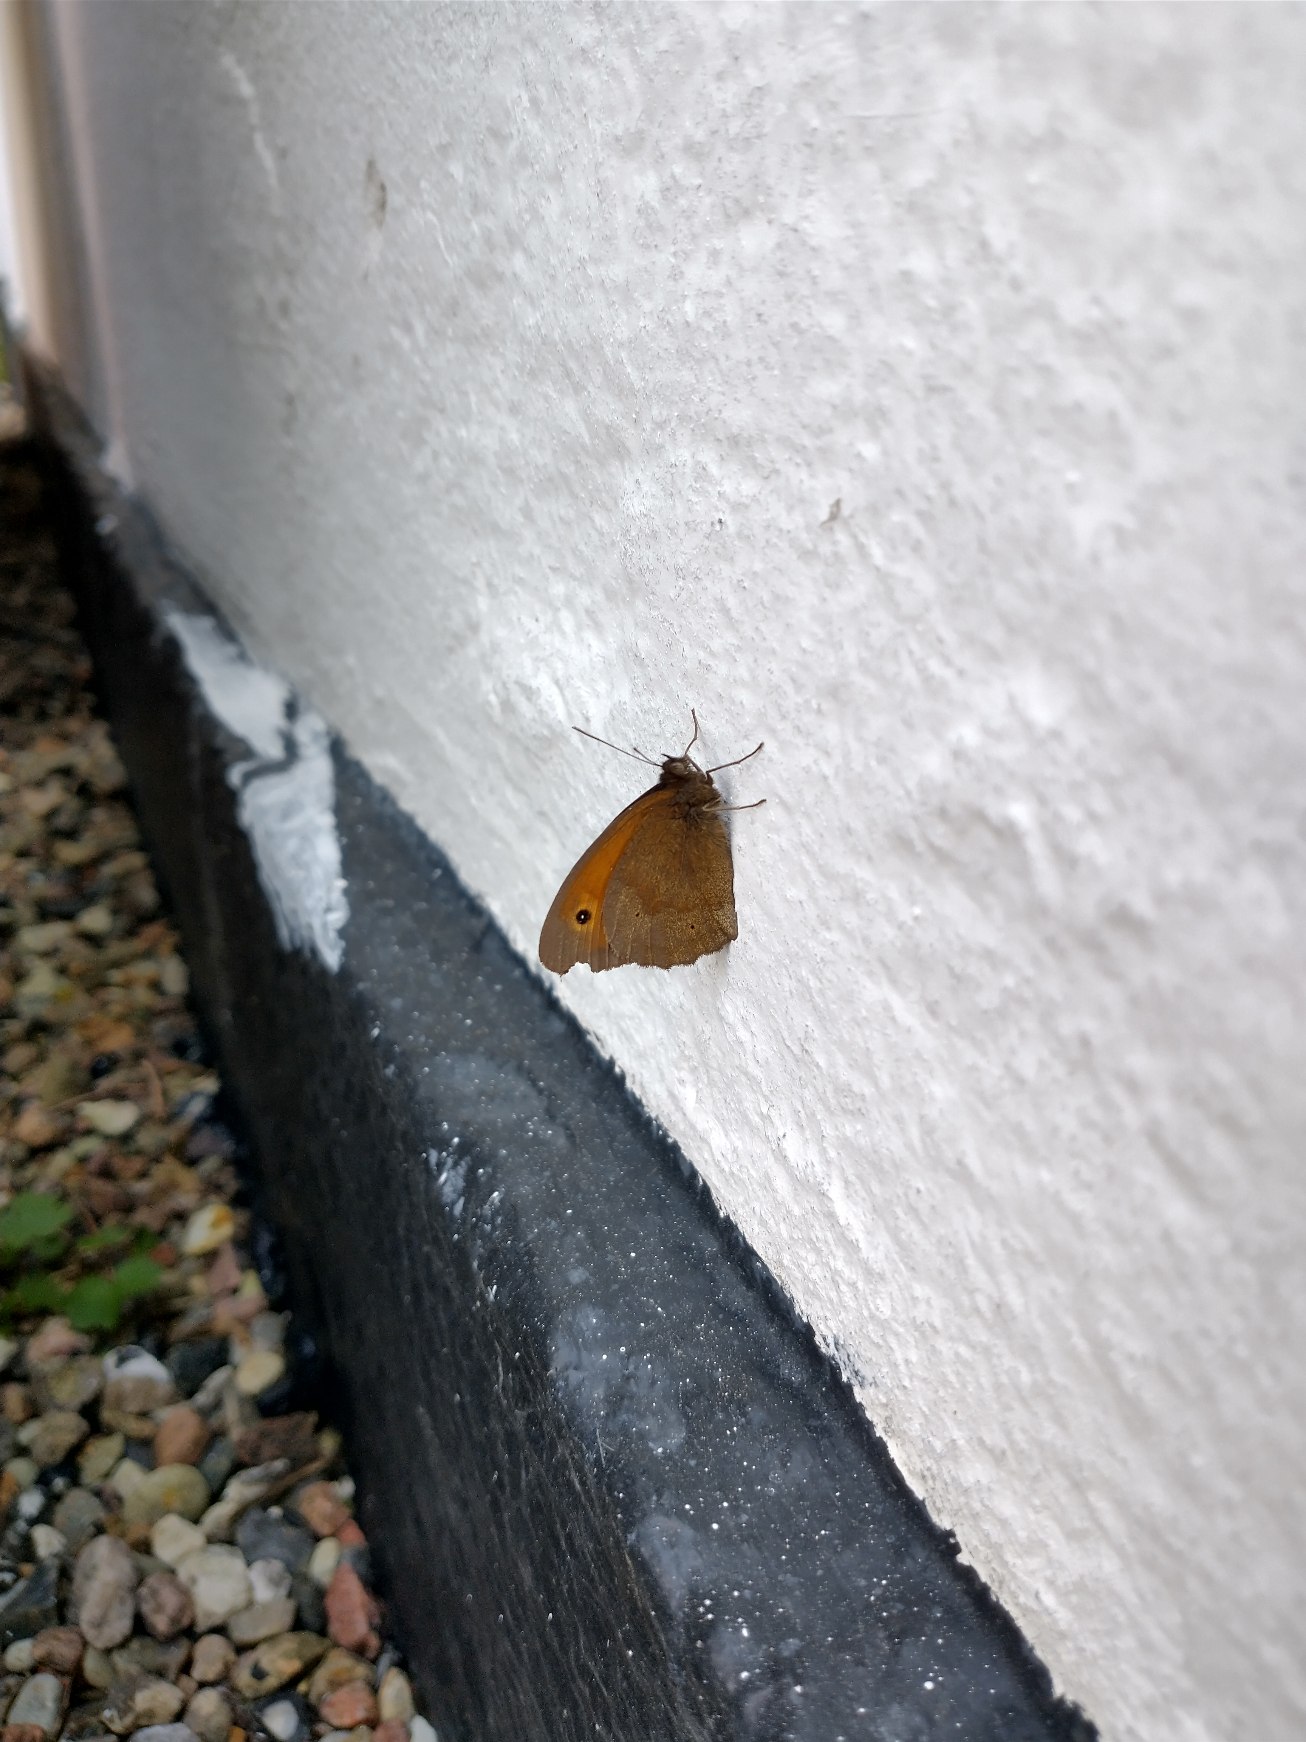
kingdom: Animalia
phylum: Arthropoda
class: Insecta
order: Lepidoptera
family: Nymphalidae
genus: Maniola
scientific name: Maniola jurtina
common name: Græsrandøje
